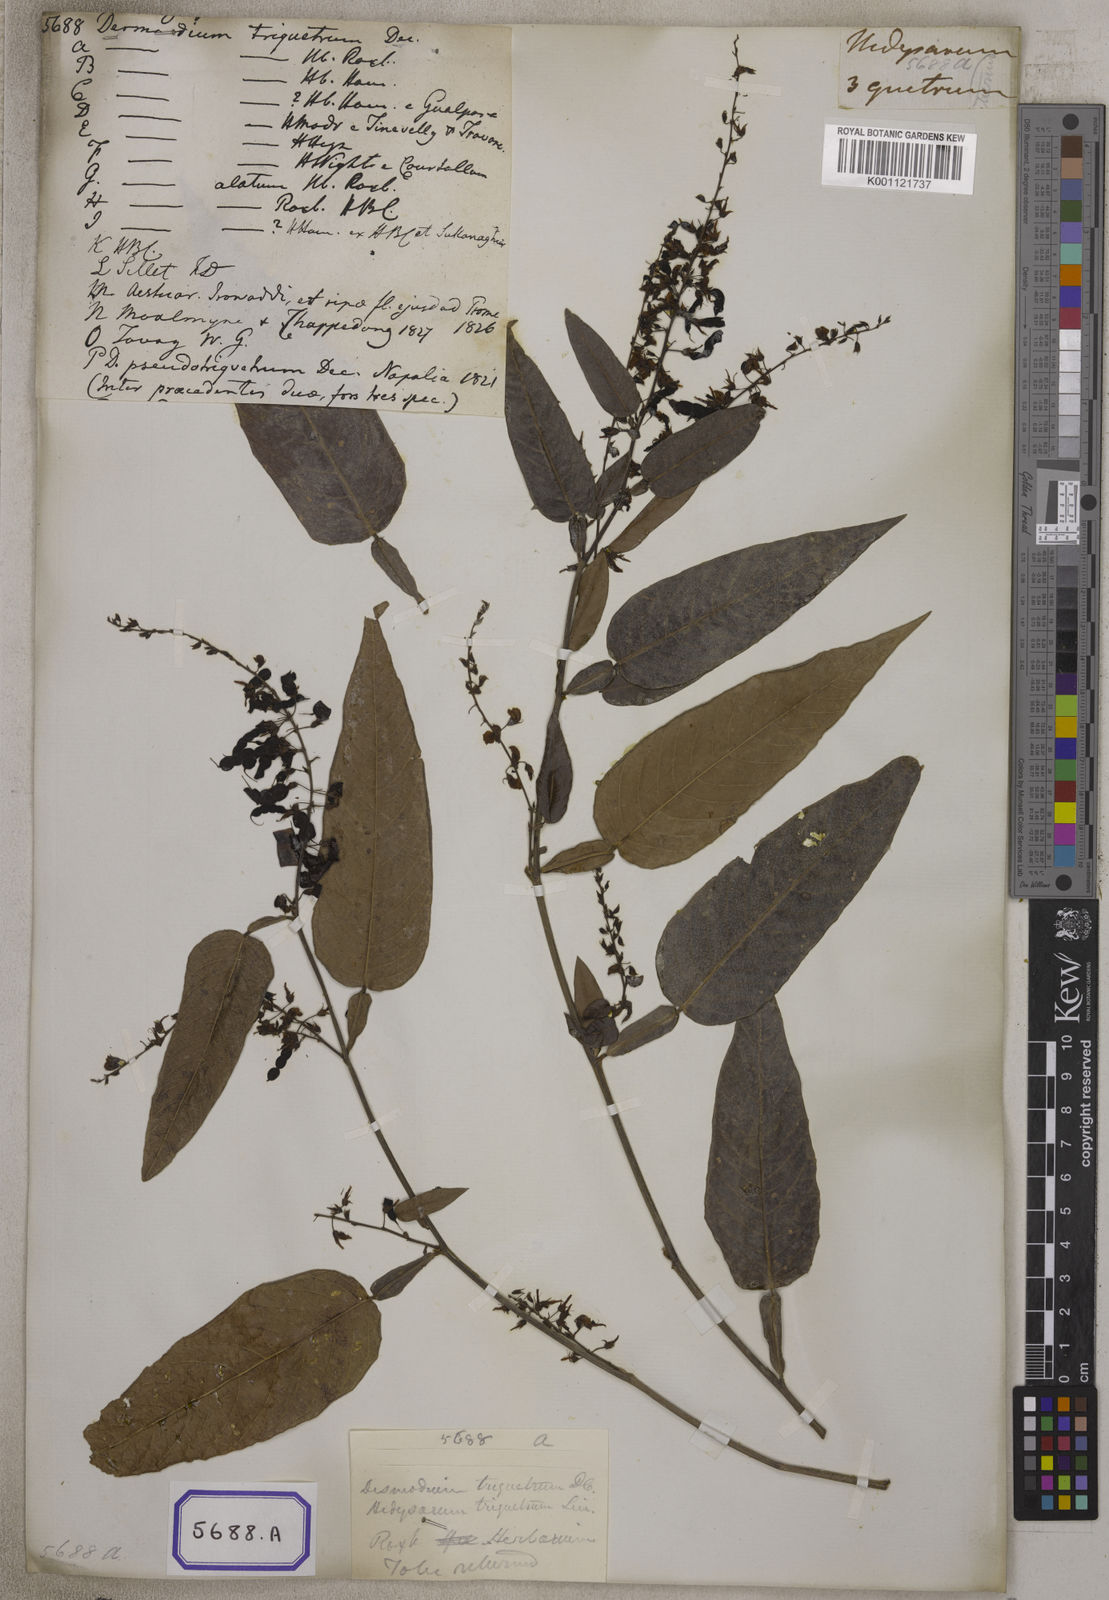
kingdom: Plantae
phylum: Tracheophyta
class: Magnoliopsida
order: Fabales
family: Fabaceae
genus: Tadehagi
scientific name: Tadehagi triquetrum
